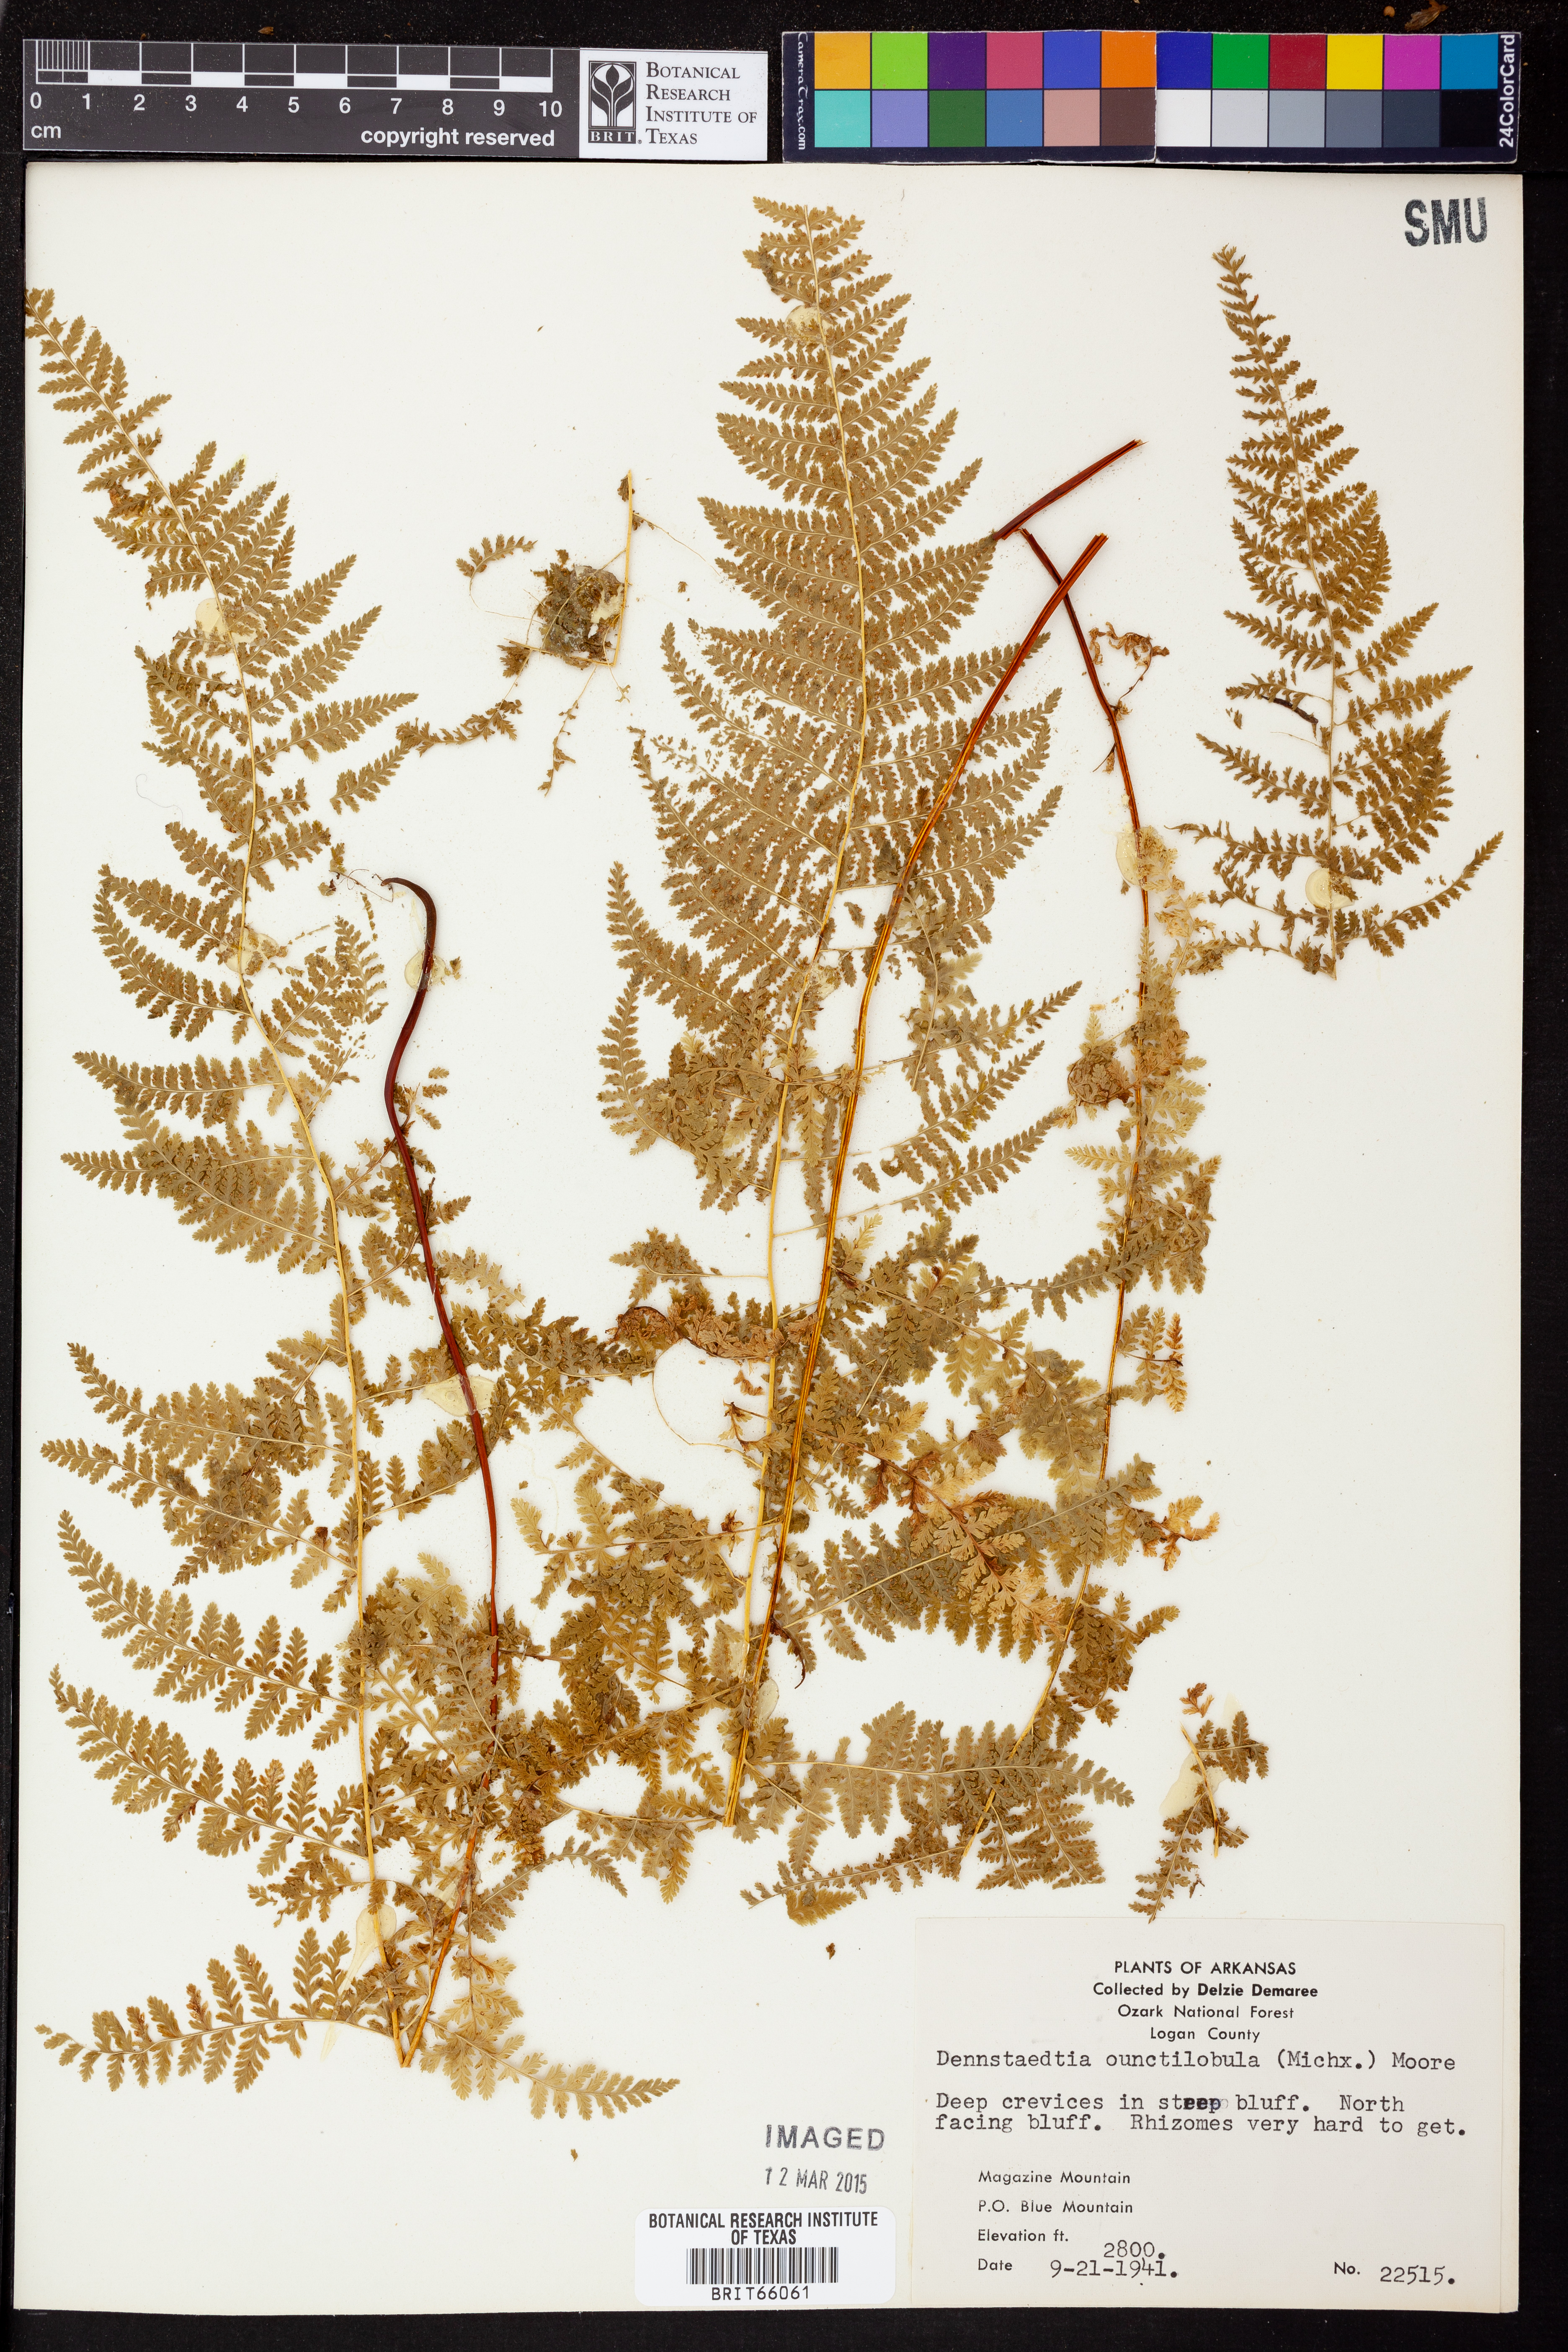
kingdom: Plantae
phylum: Tracheophyta
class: Polypodiopsida
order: Polypodiales
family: Dennstaedtiaceae
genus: Dennstaedtia
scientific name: Dennstaedtia
